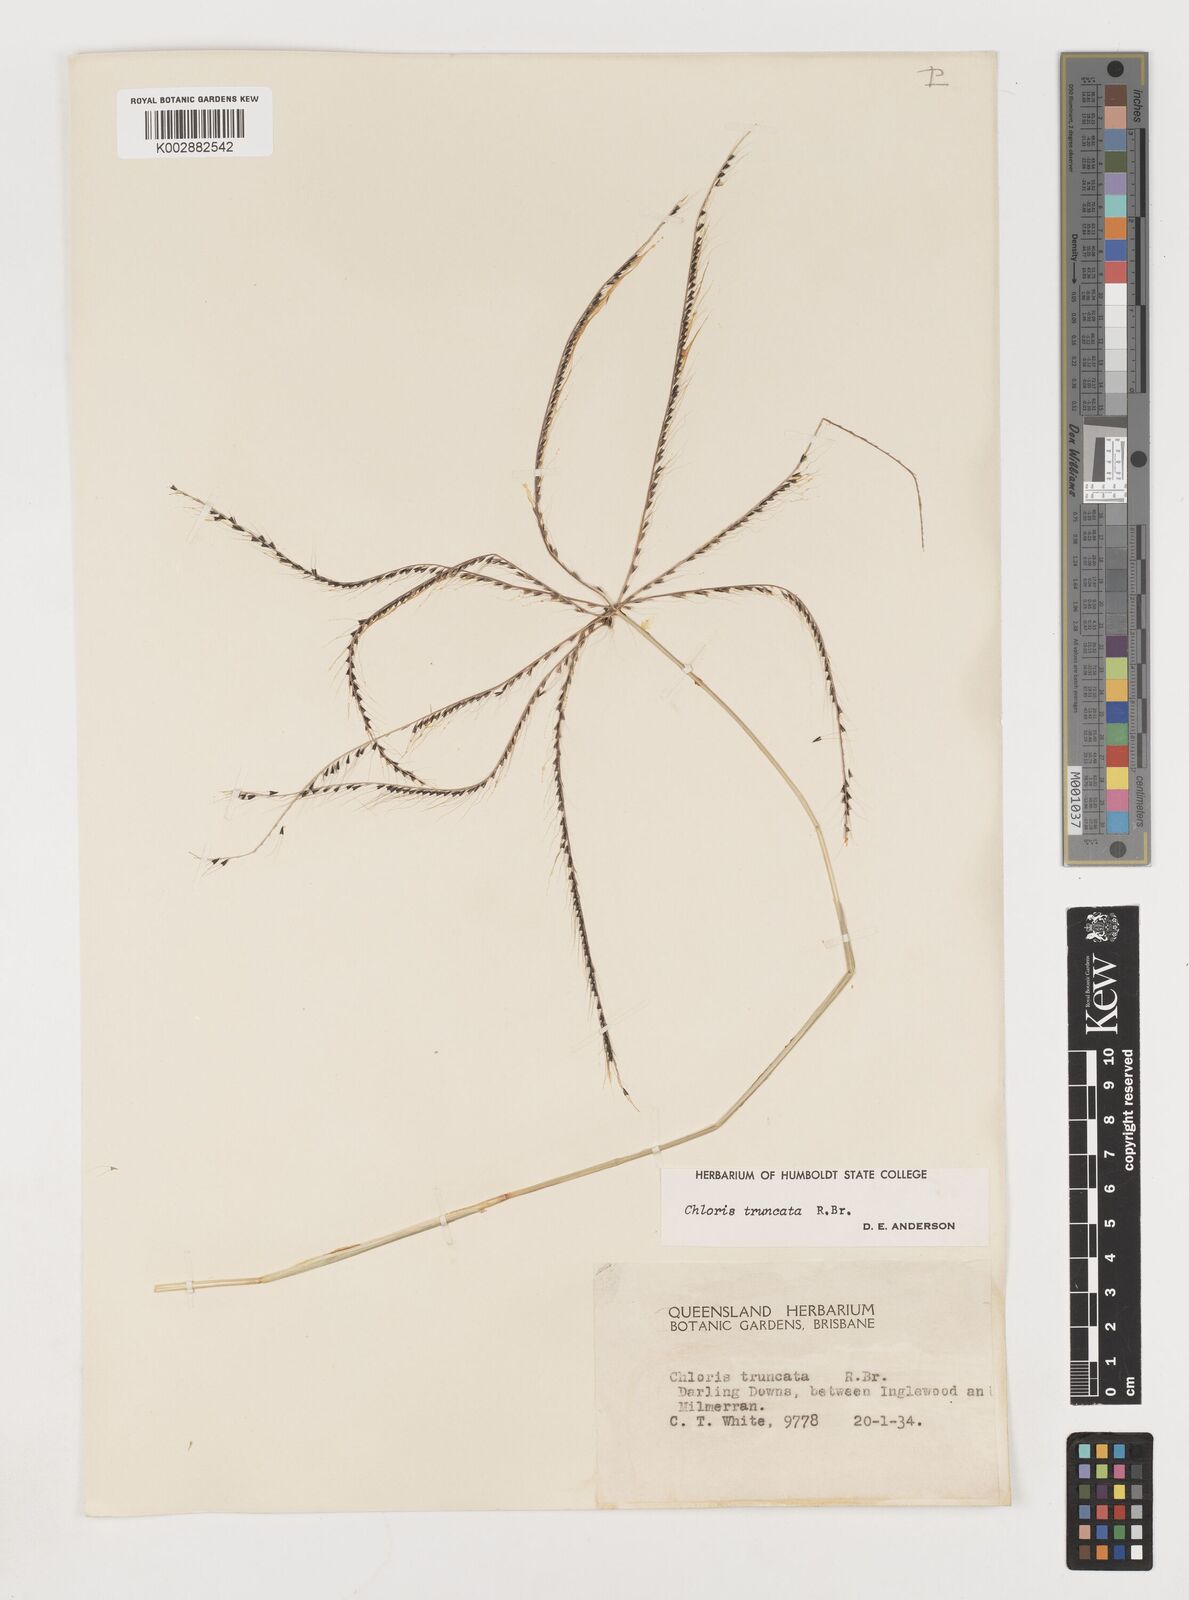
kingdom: Plantae
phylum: Tracheophyta
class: Liliopsida
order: Poales
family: Poaceae
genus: Chloris
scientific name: Chloris truncata
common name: Windmill-grass
